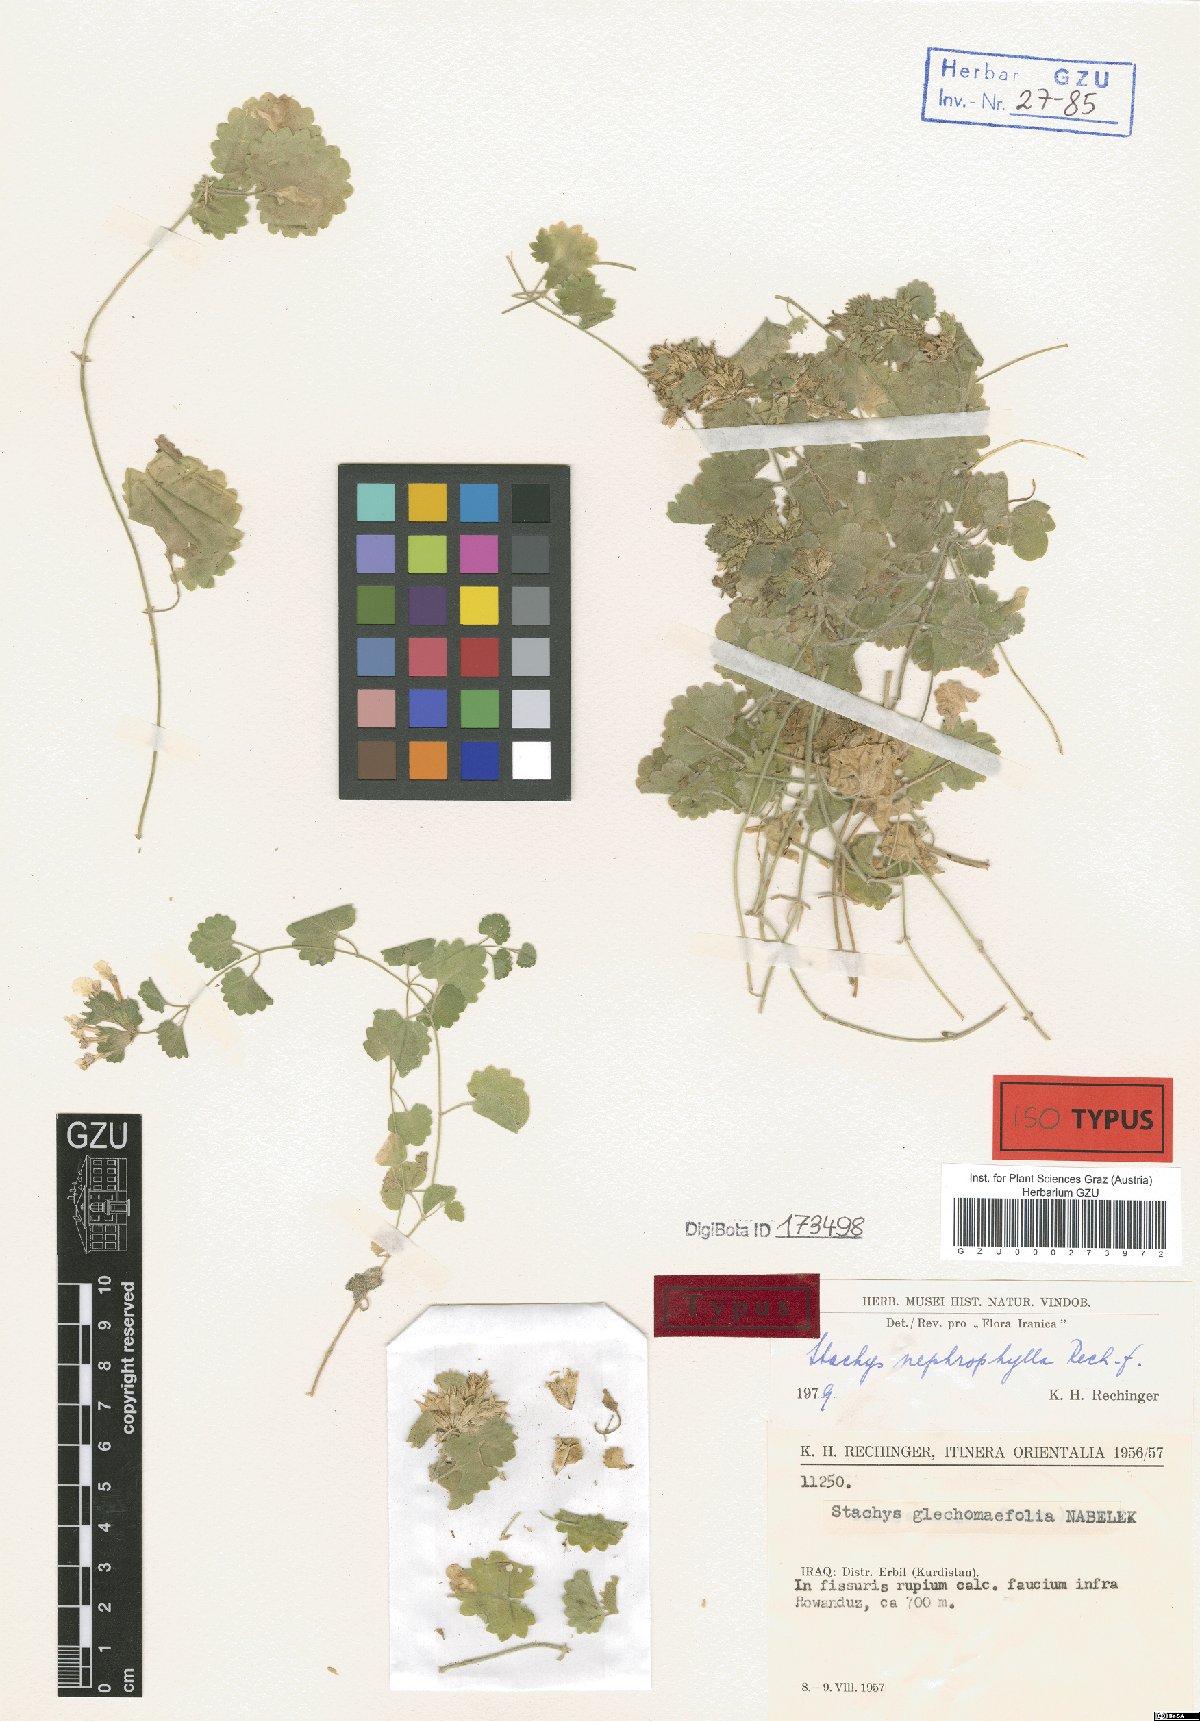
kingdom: Plantae
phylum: Tracheophyta
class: Magnoliopsida
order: Lamiales
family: Lamiaceae
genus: Stachys
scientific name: Stachys nephrophylla
